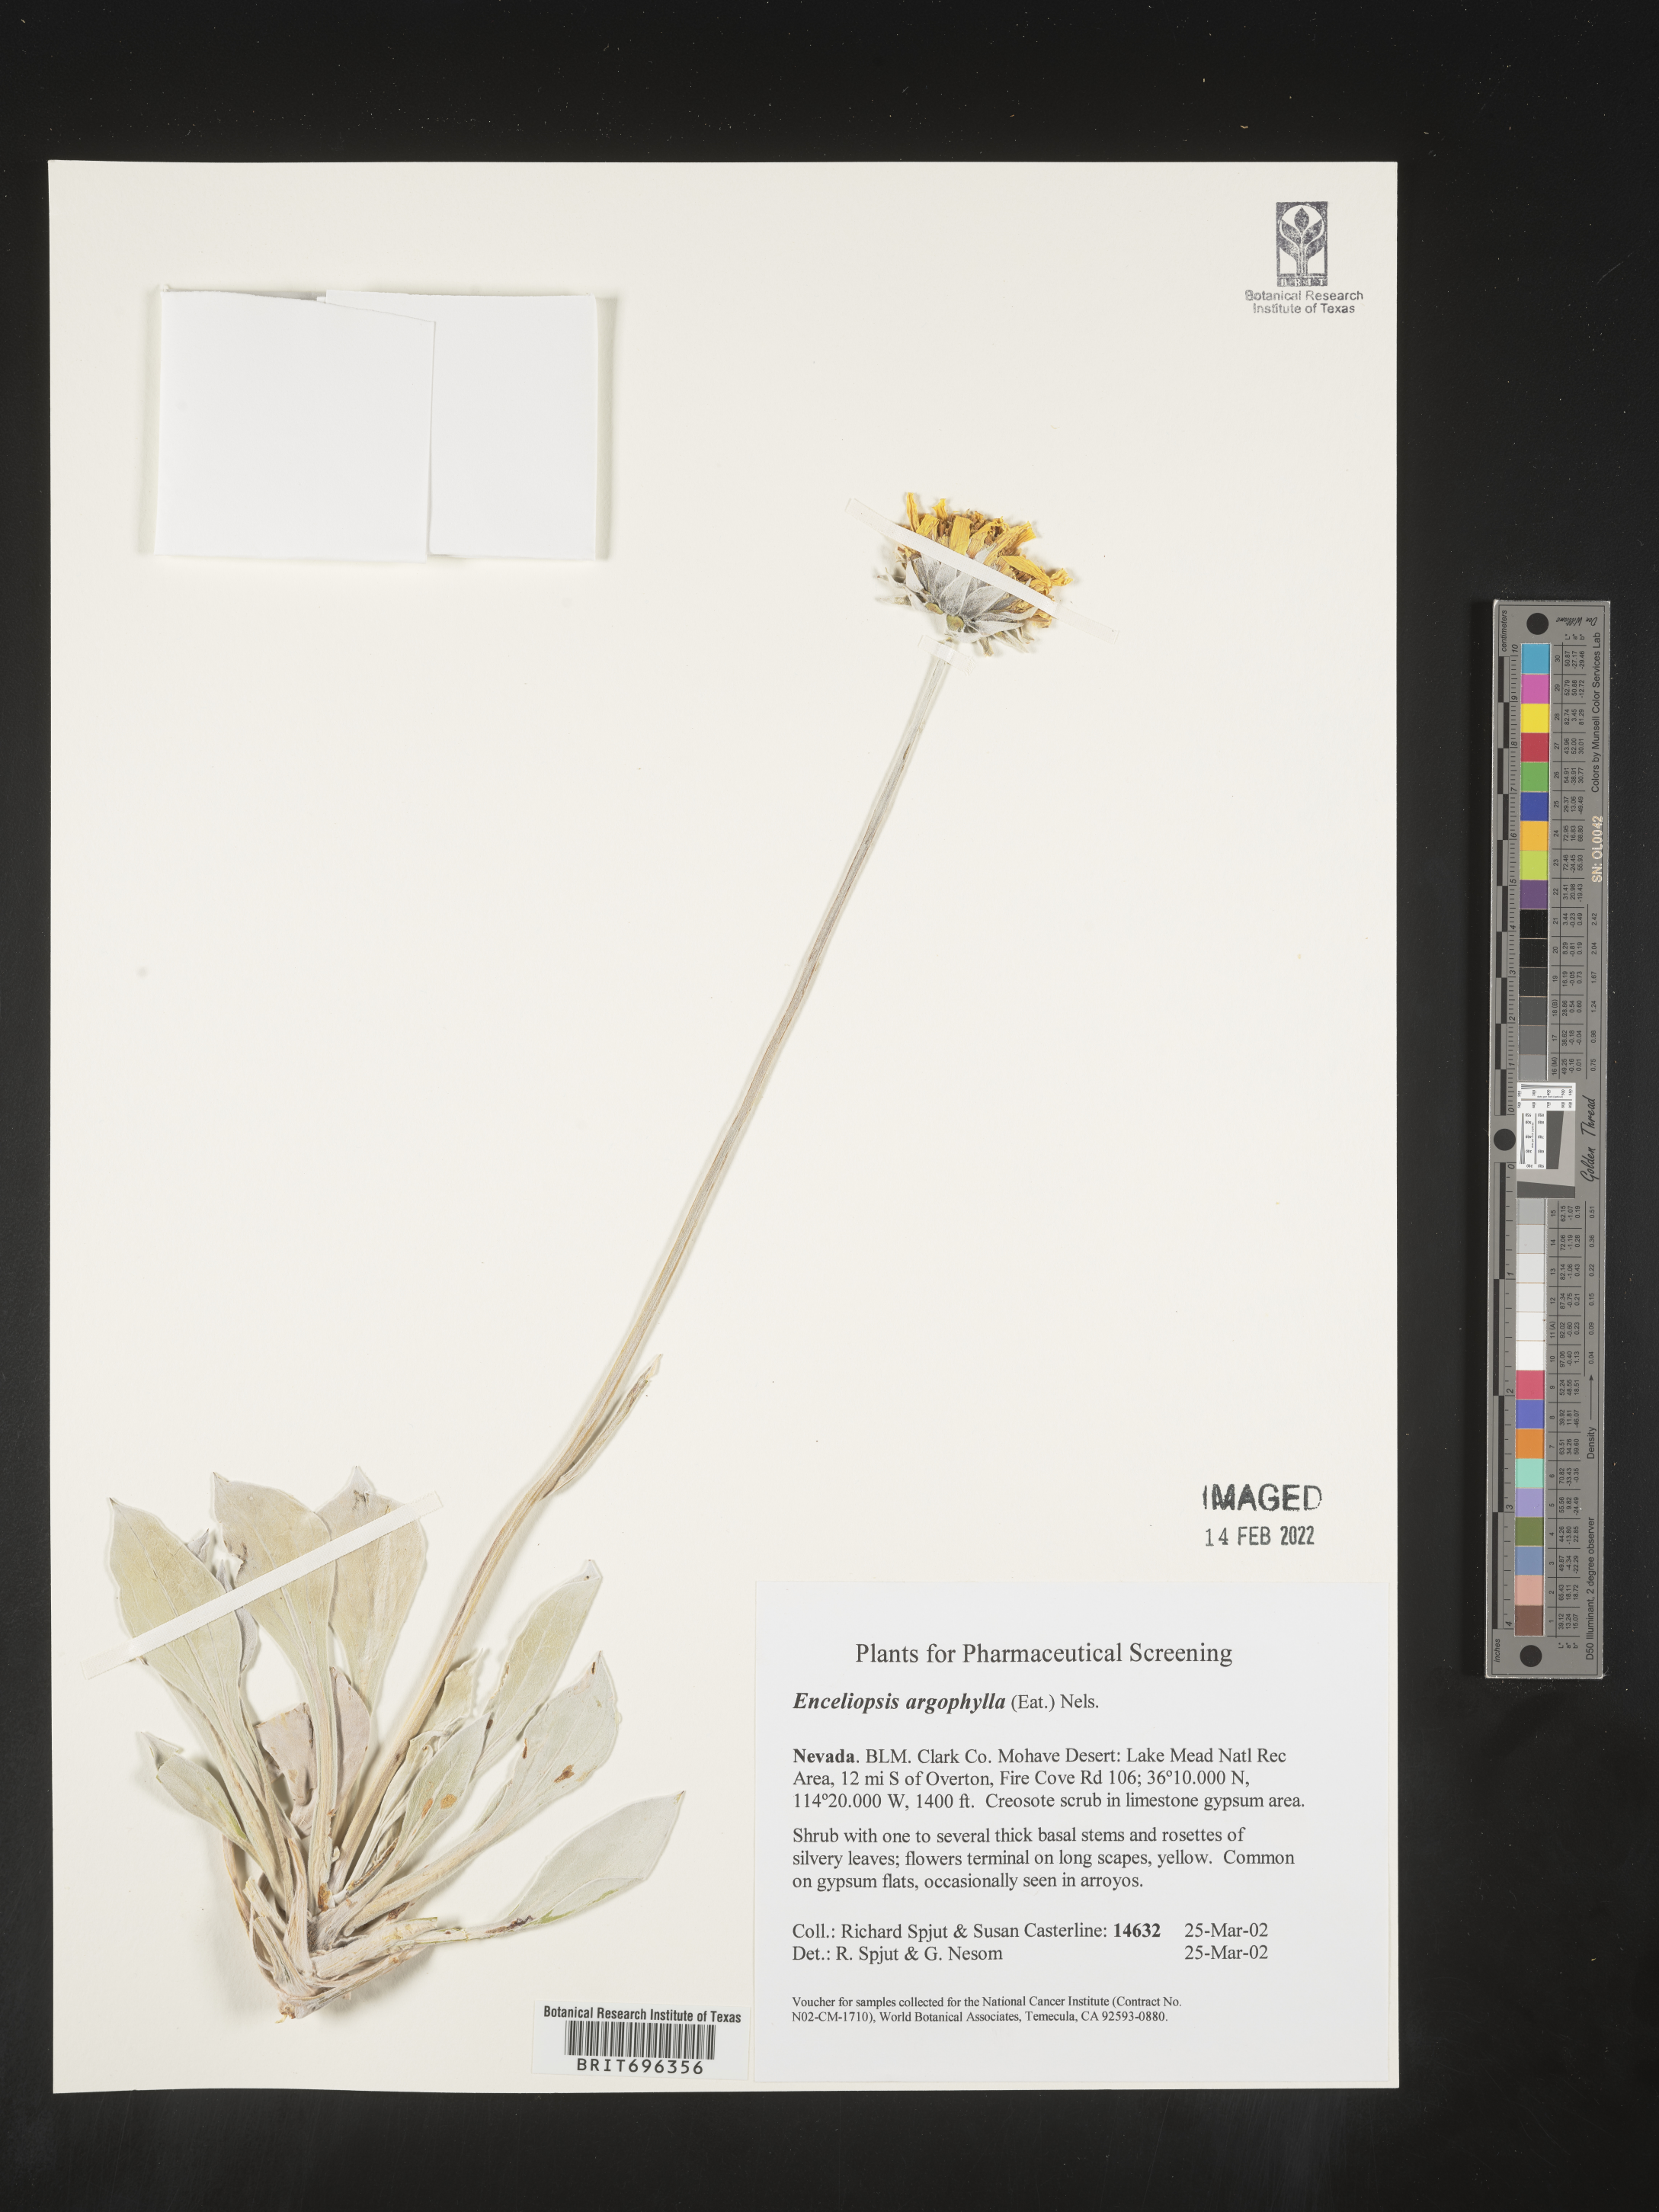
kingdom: Plantae
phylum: Tracheophyta
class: Magnoliopsida
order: Asterales
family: Asteraceae
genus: Enceliopsis
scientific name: Enceliopsis argophylla
